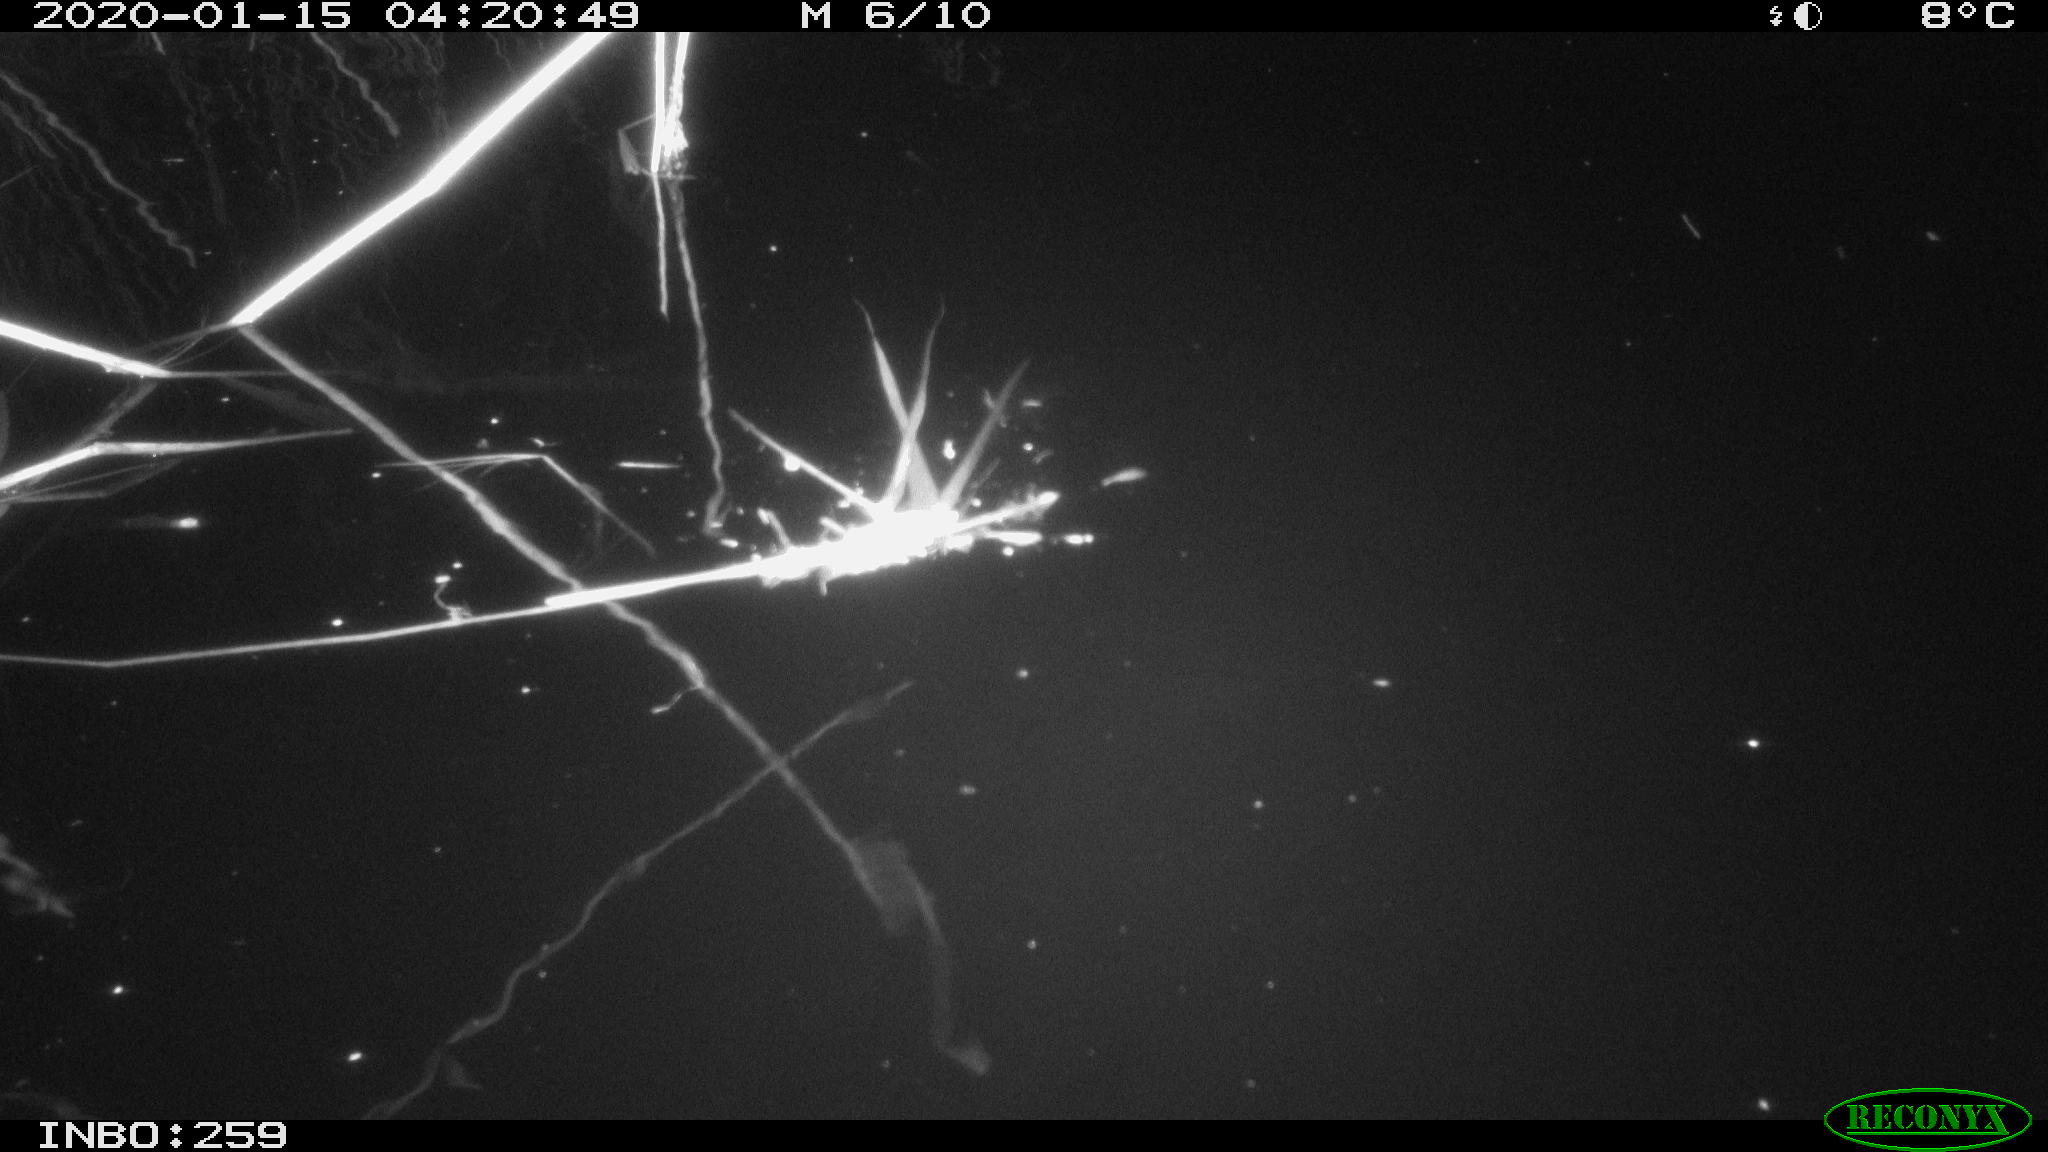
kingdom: Animalia
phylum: Chordata
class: Aves
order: Gruiformes
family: Rallidae
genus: Gallinula
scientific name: Gallinula chloropus
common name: Common moorhen
